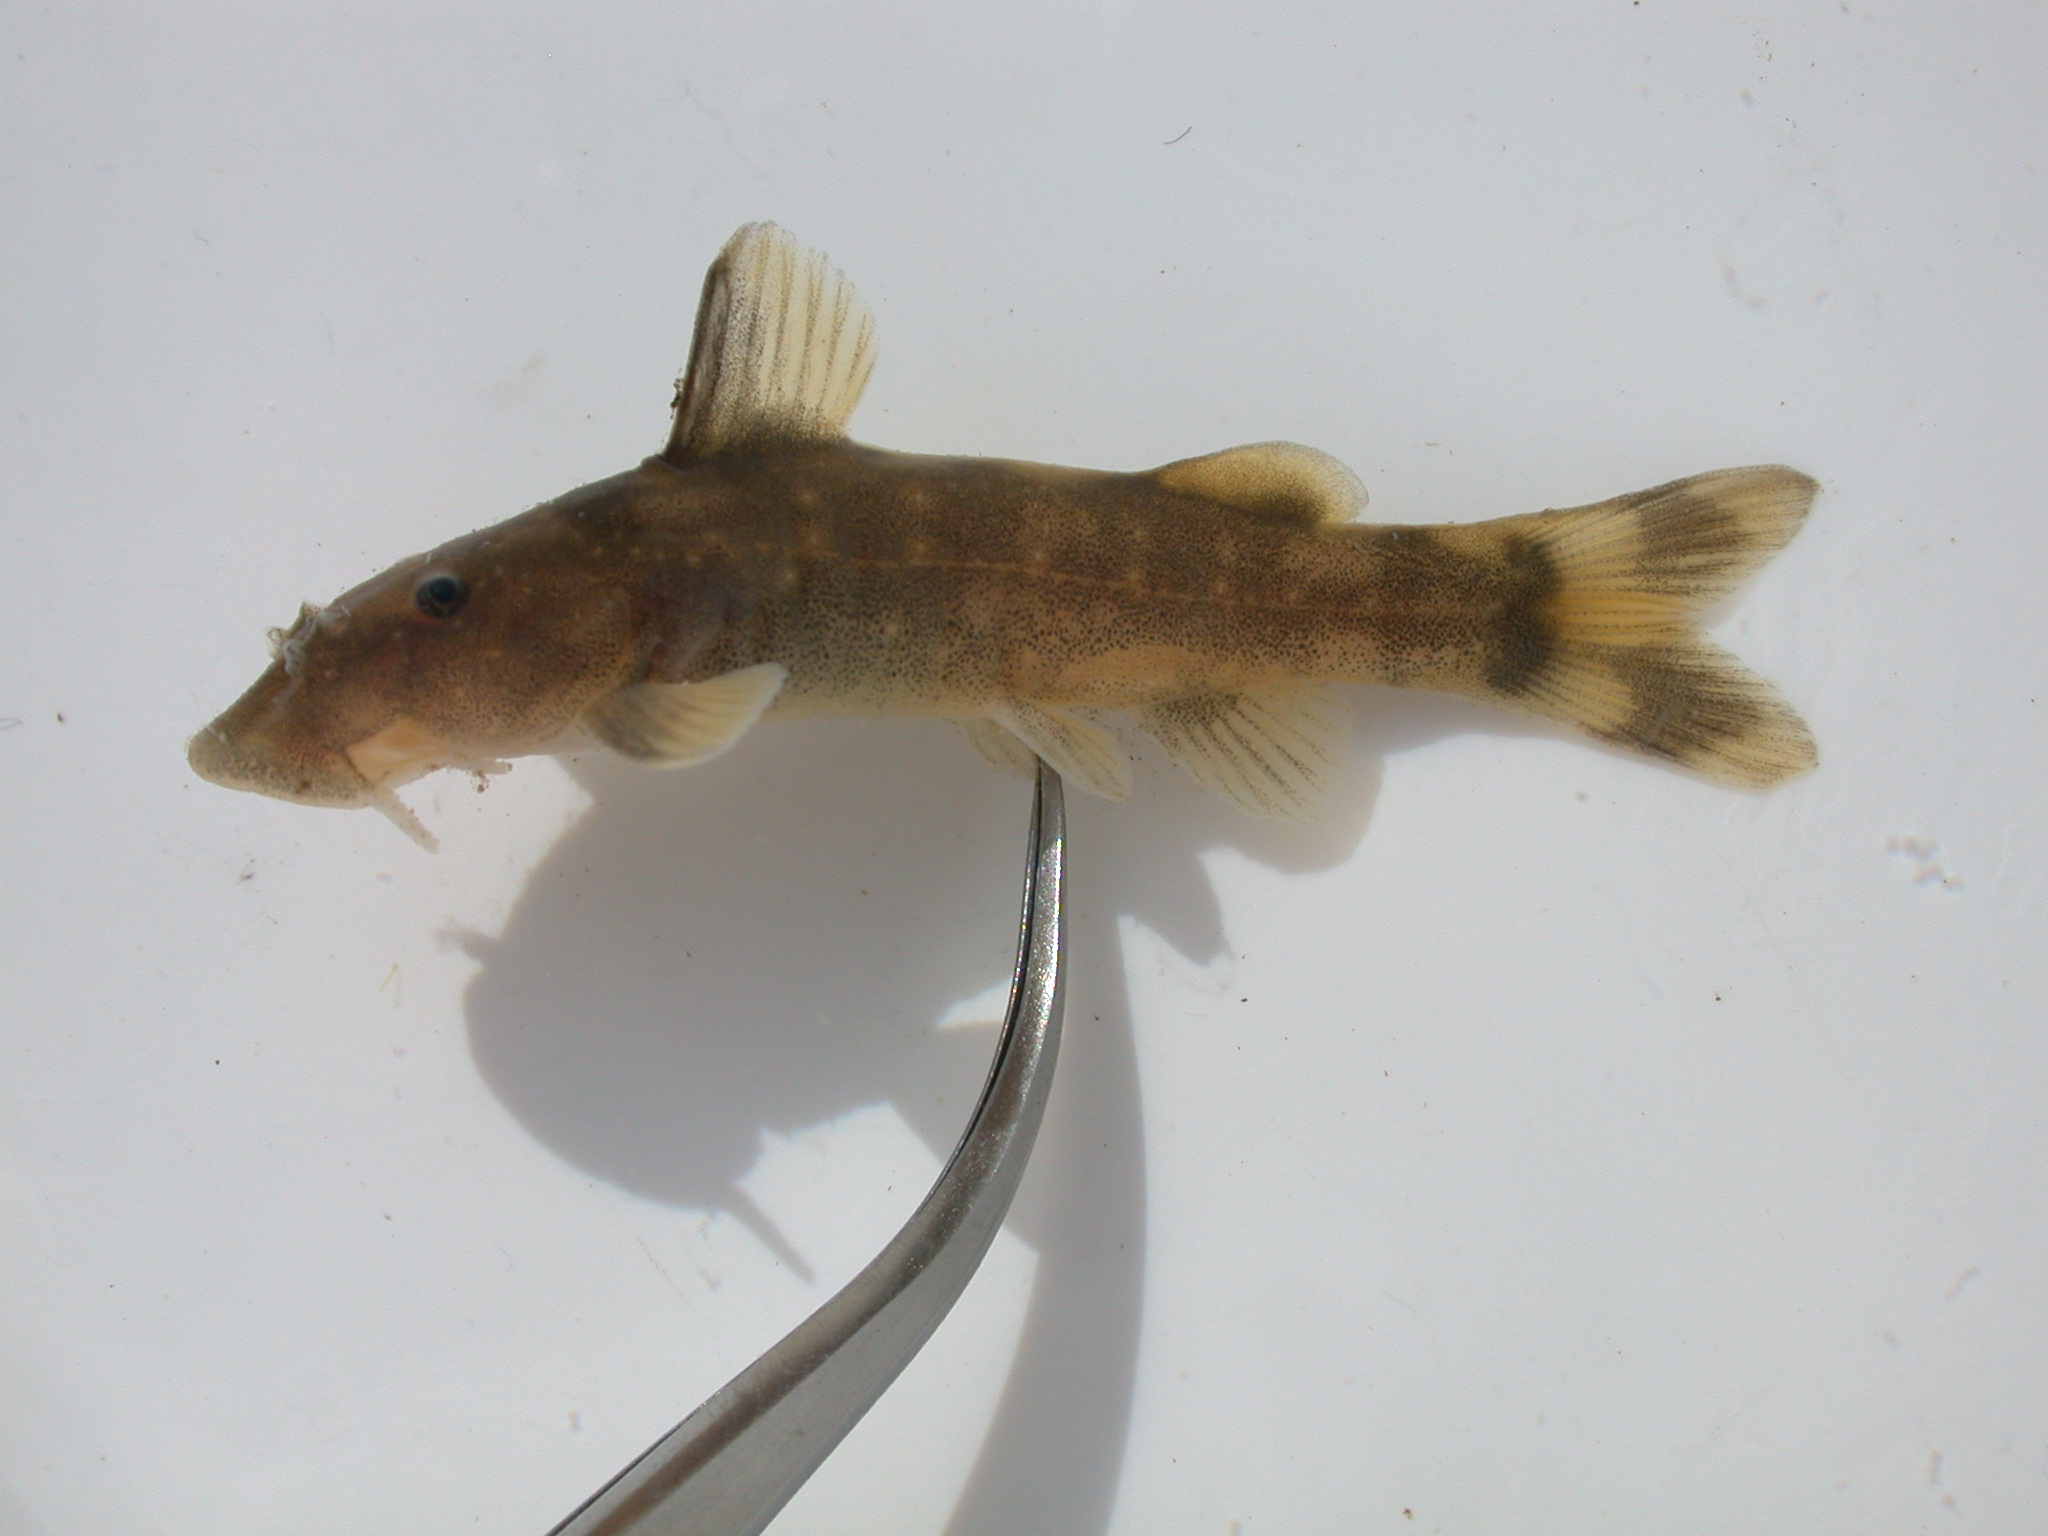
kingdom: Animalia
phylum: Chordata
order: Siluriformes
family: Mochokidae
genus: Chiloglanis
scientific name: Chiloglanis
